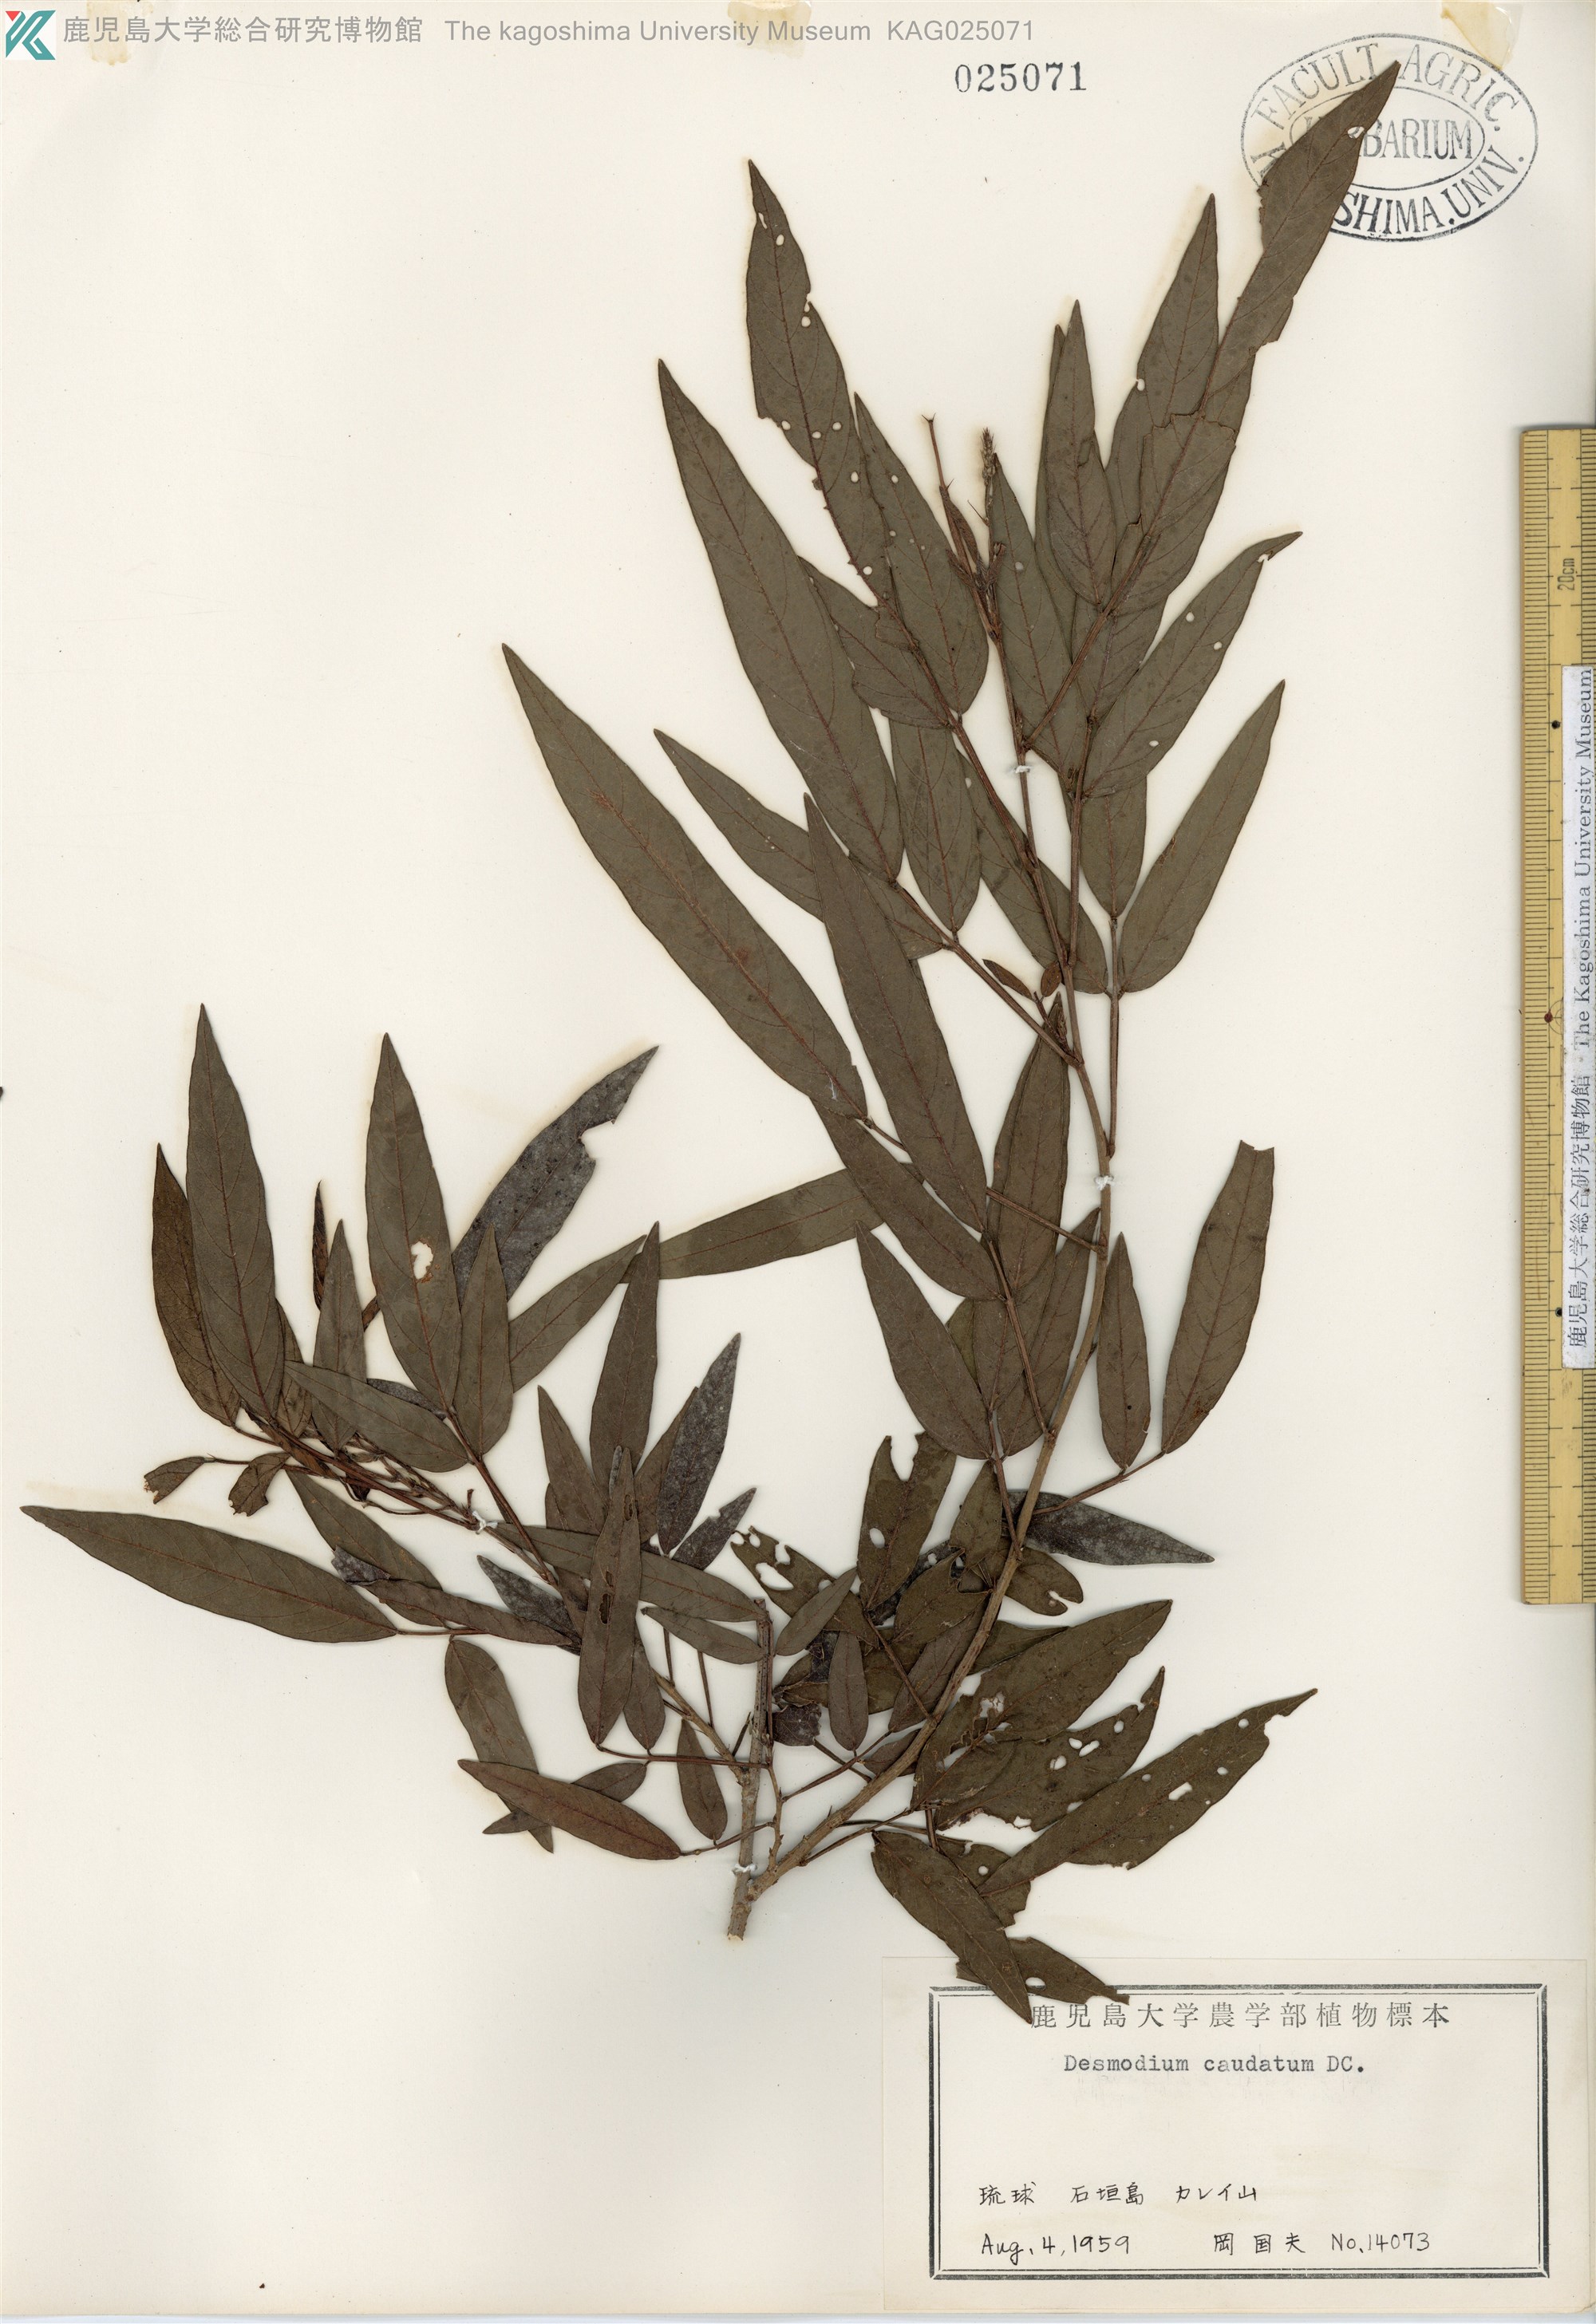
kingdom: Plantae
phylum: Tracheophyta
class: Magnoliopsida
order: Fabales
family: Fabaceae
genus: Ohwia
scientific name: Ohwia caudata
